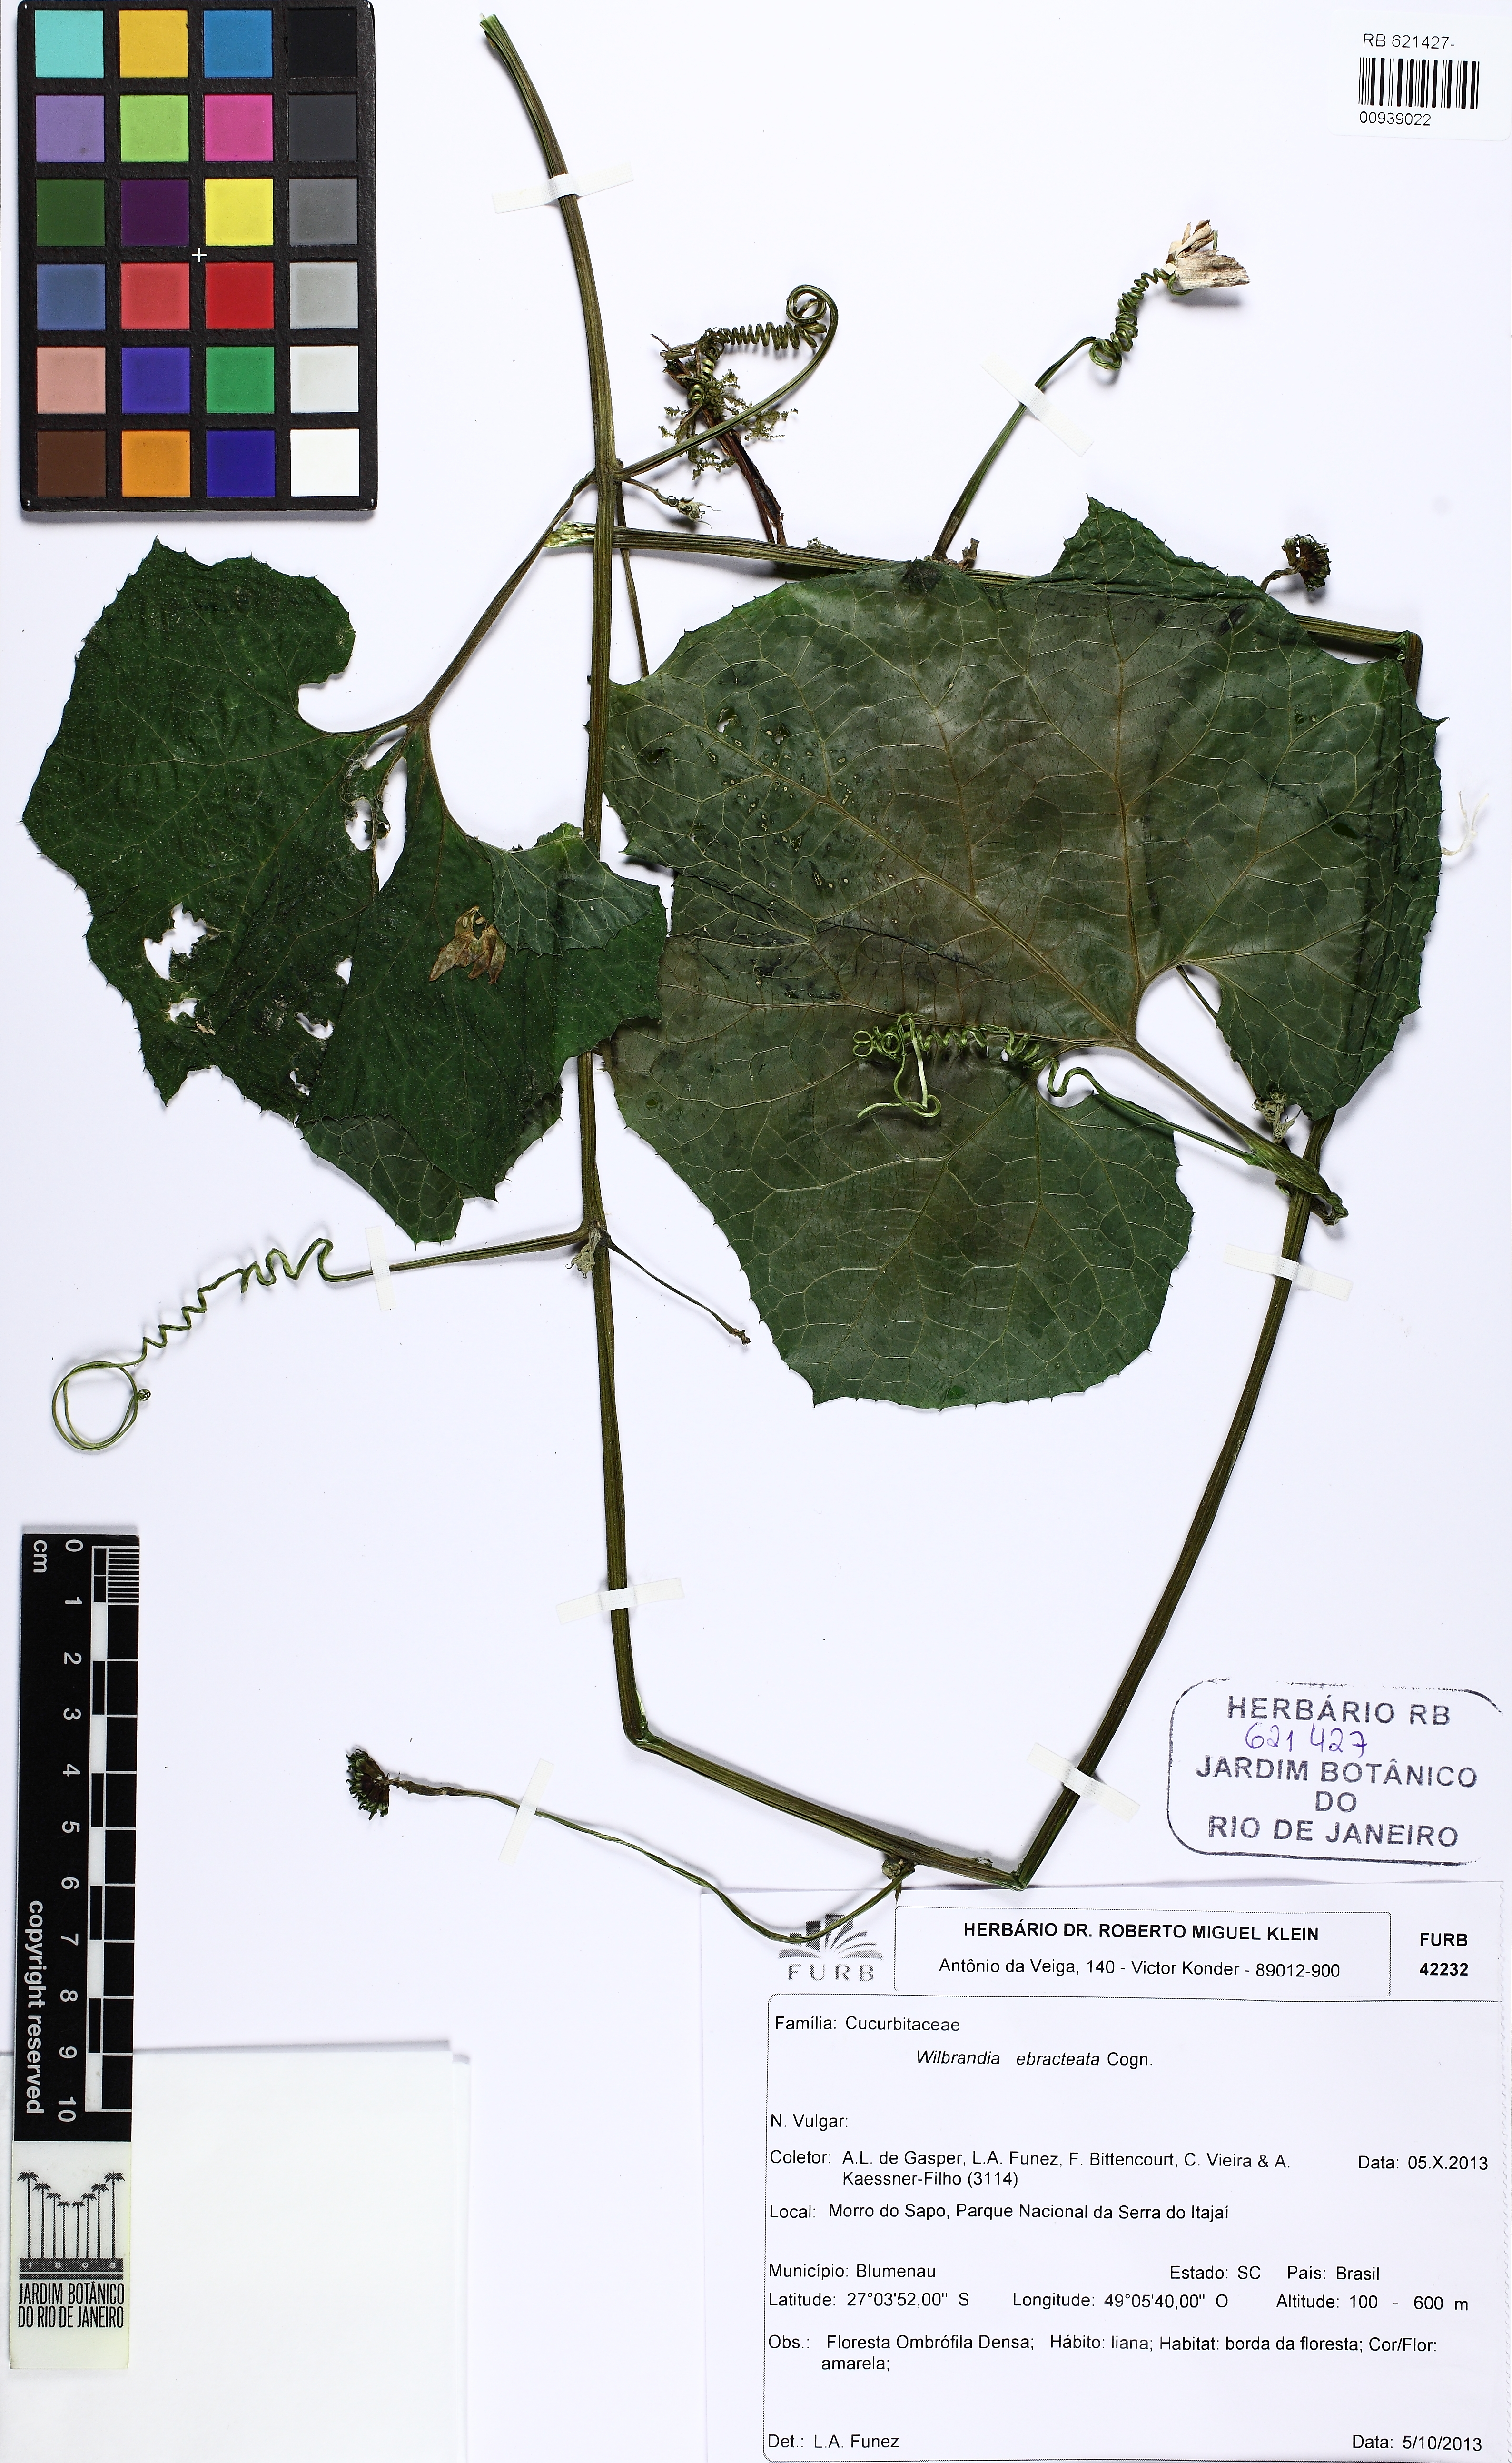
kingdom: Plantae
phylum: Tracheophyta
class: Magnoliopsida
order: Cucurbitales
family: Cucurbitaceae
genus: Wilbrandia
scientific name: Wilbrandia ebracteata
